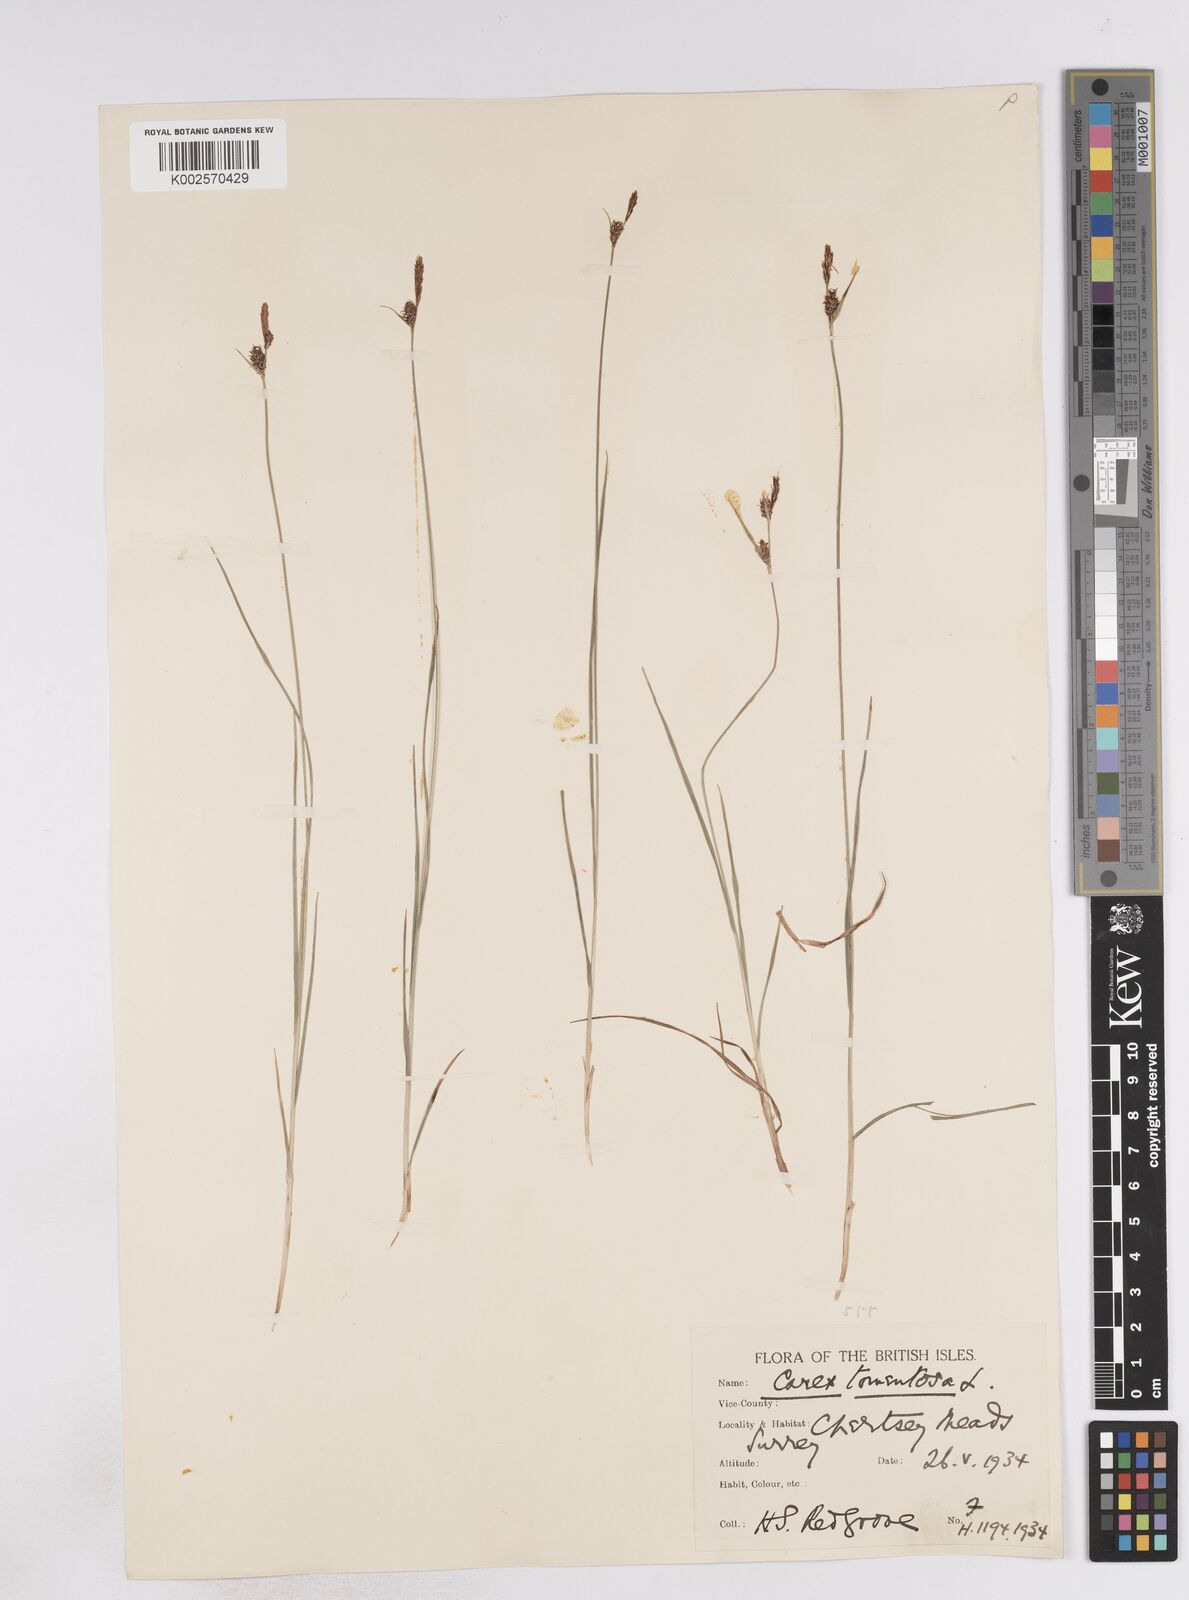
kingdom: Plantae
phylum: Tracheophyta
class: Liliopsida
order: Poales
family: Cyperaceae
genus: Carex
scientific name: Carex montana
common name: Soft-leaved sedge
